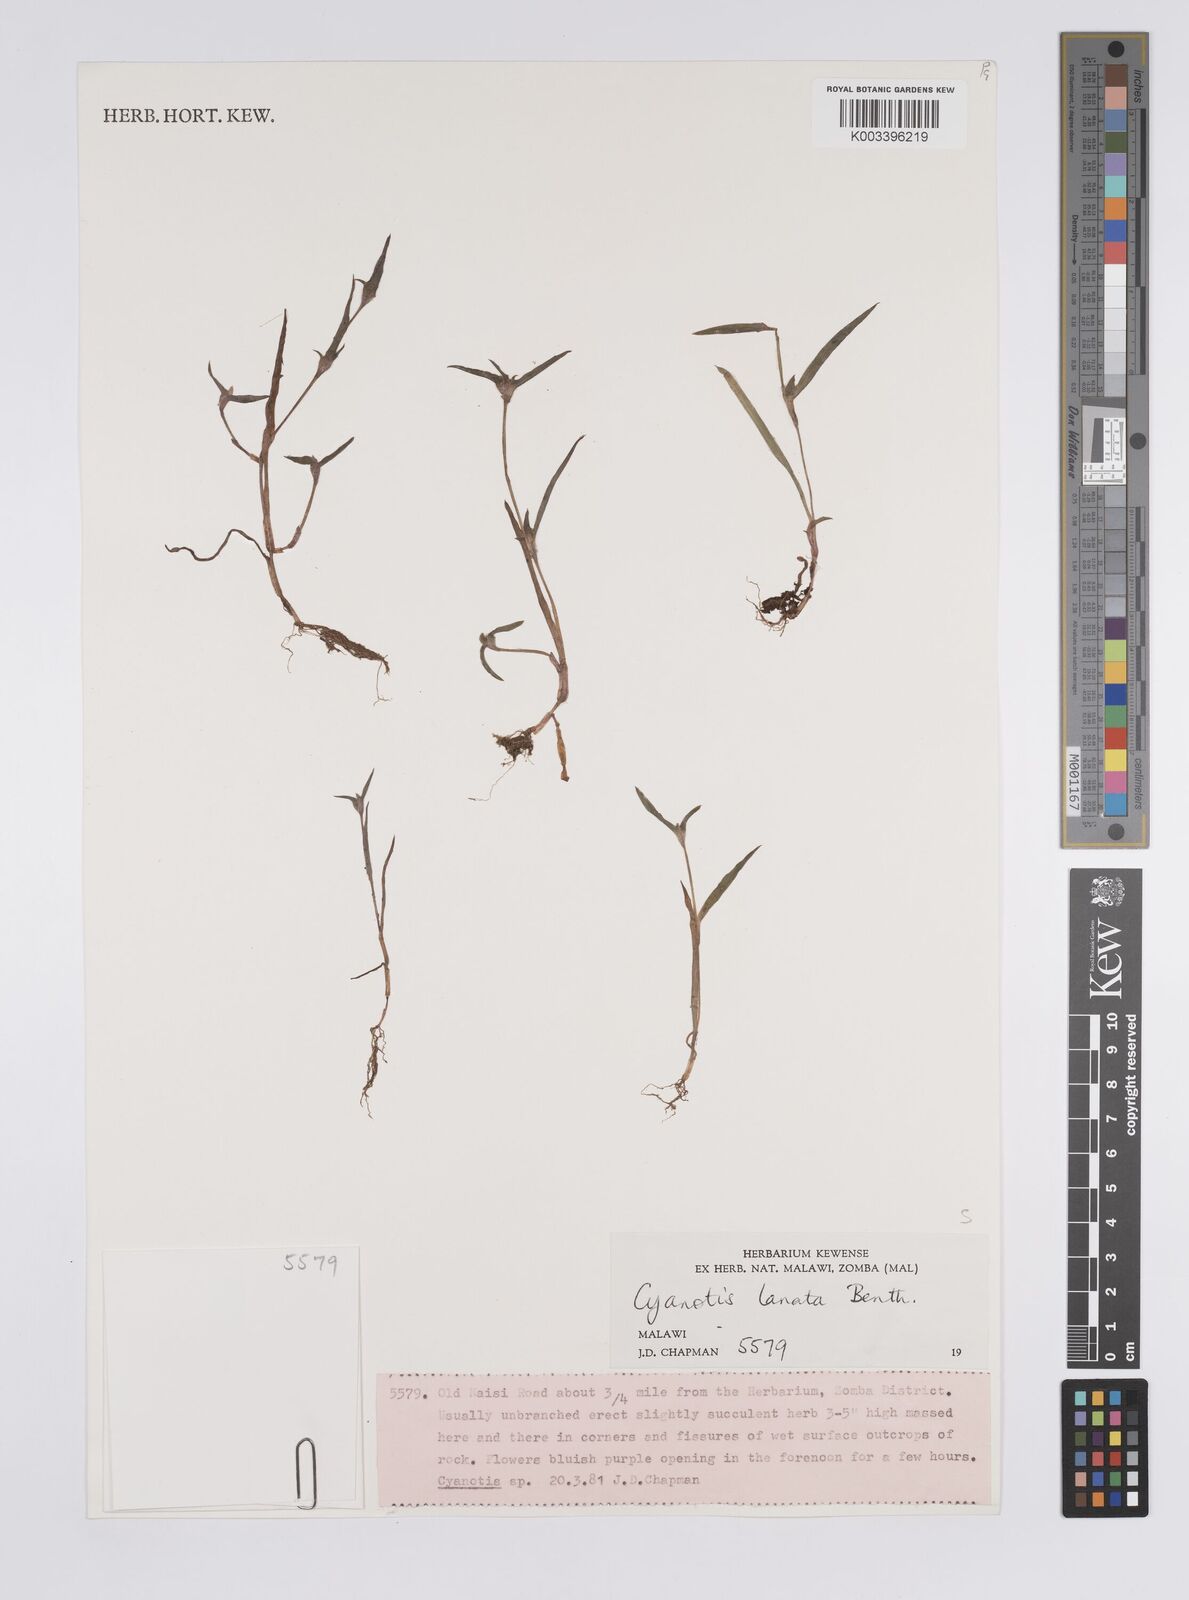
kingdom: Plantae
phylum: Tracheophyta
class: Liliopsida
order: Commelinales
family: Commelinaceae
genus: Cyanotis
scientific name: Cyanotis lanata
